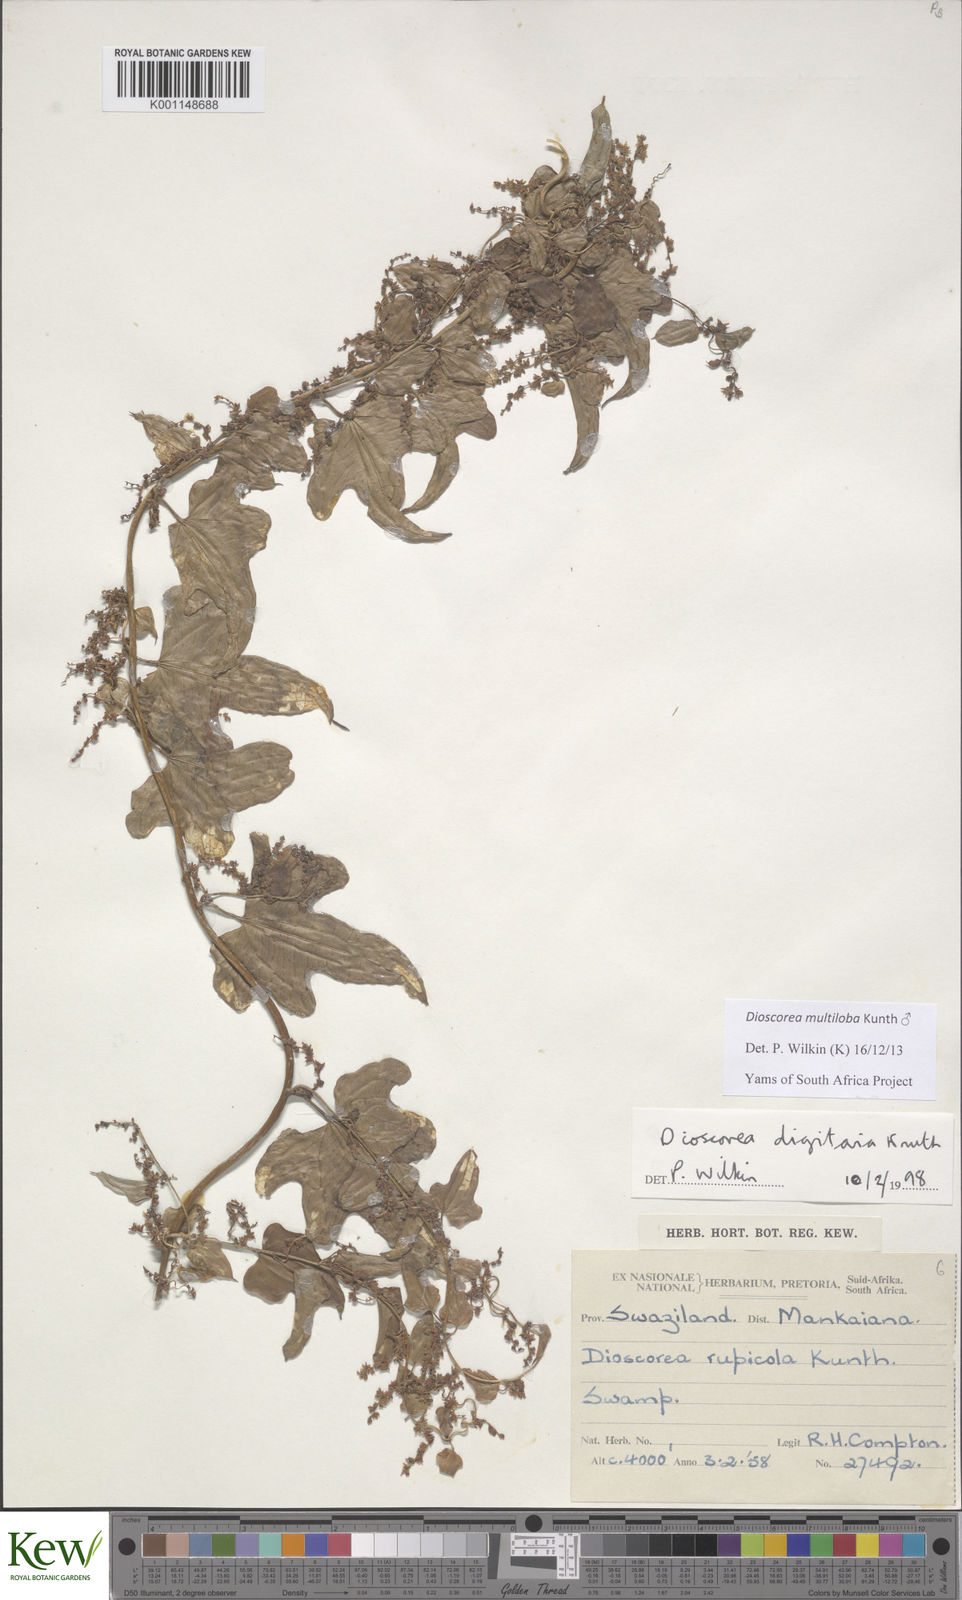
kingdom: Plantae
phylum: Tracheophyta
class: Liliopsida
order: Dioscoreales
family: Dioscoreaceae
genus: Dioscorea
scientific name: Dioscorea multiloba
